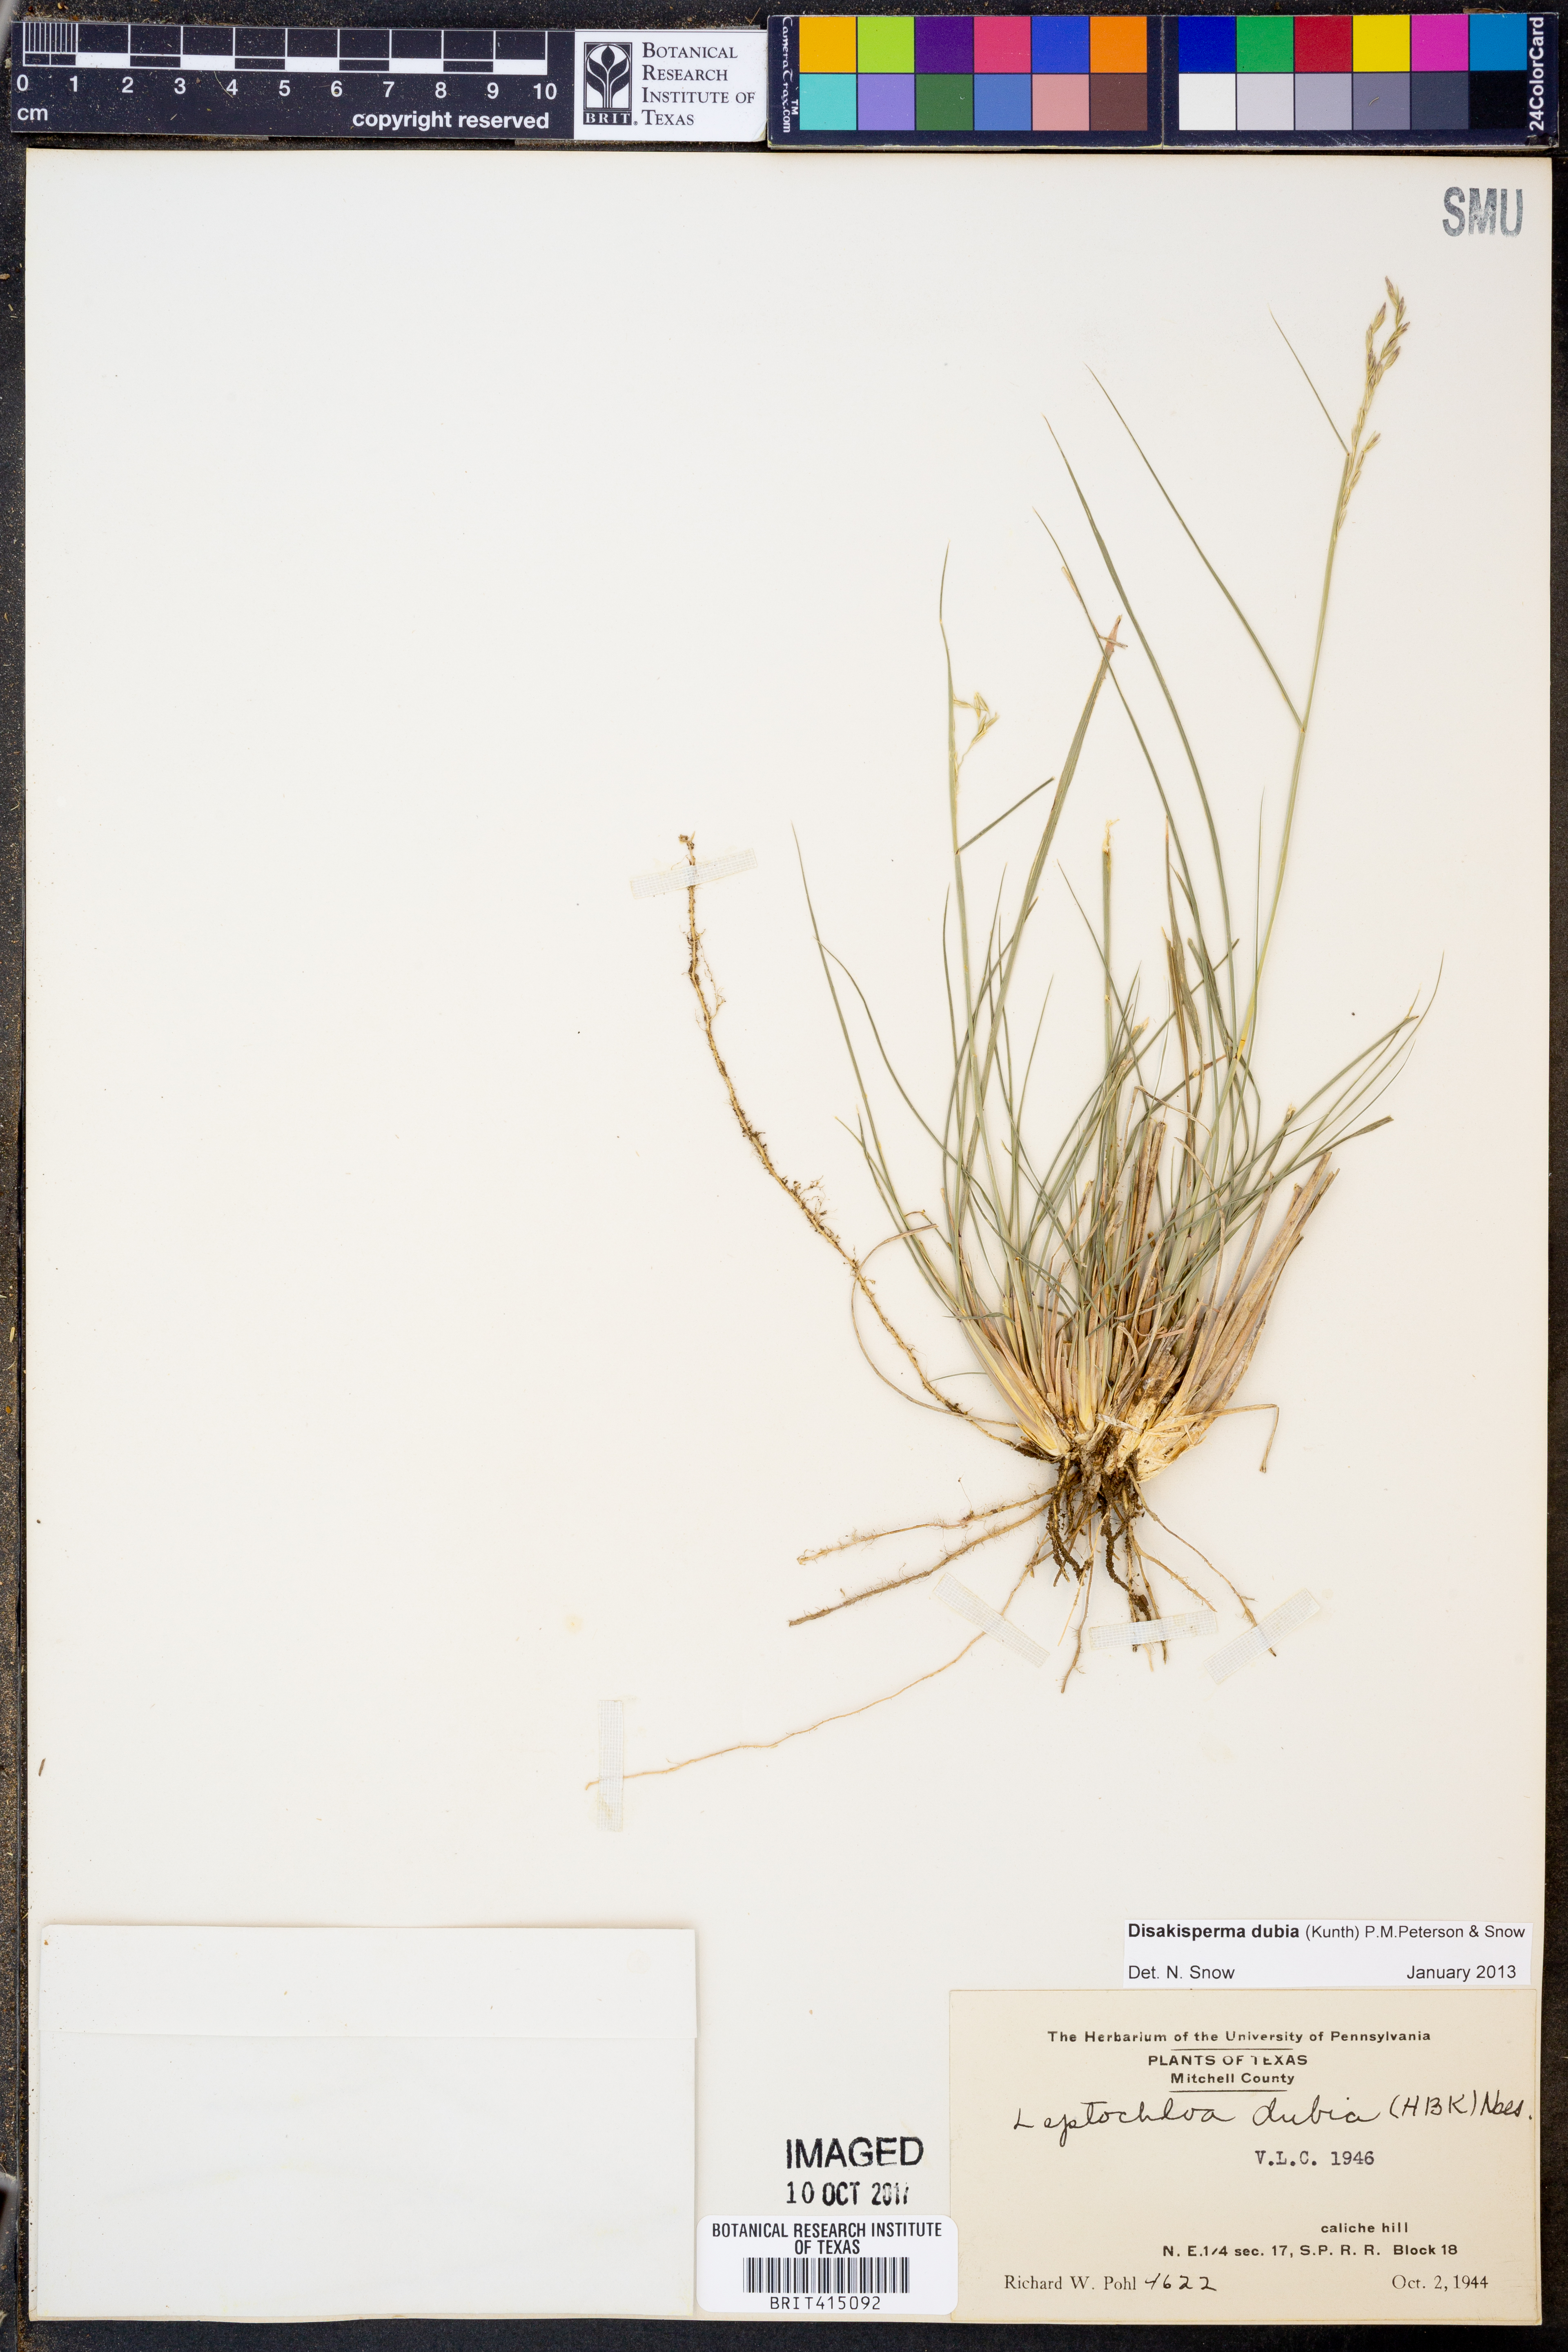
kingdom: Plantae
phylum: Tracheophyta
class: Liliopsida
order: Poales
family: Poaceae
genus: Disakisperma
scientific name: Disakisperma dubium
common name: Green sprangletop
